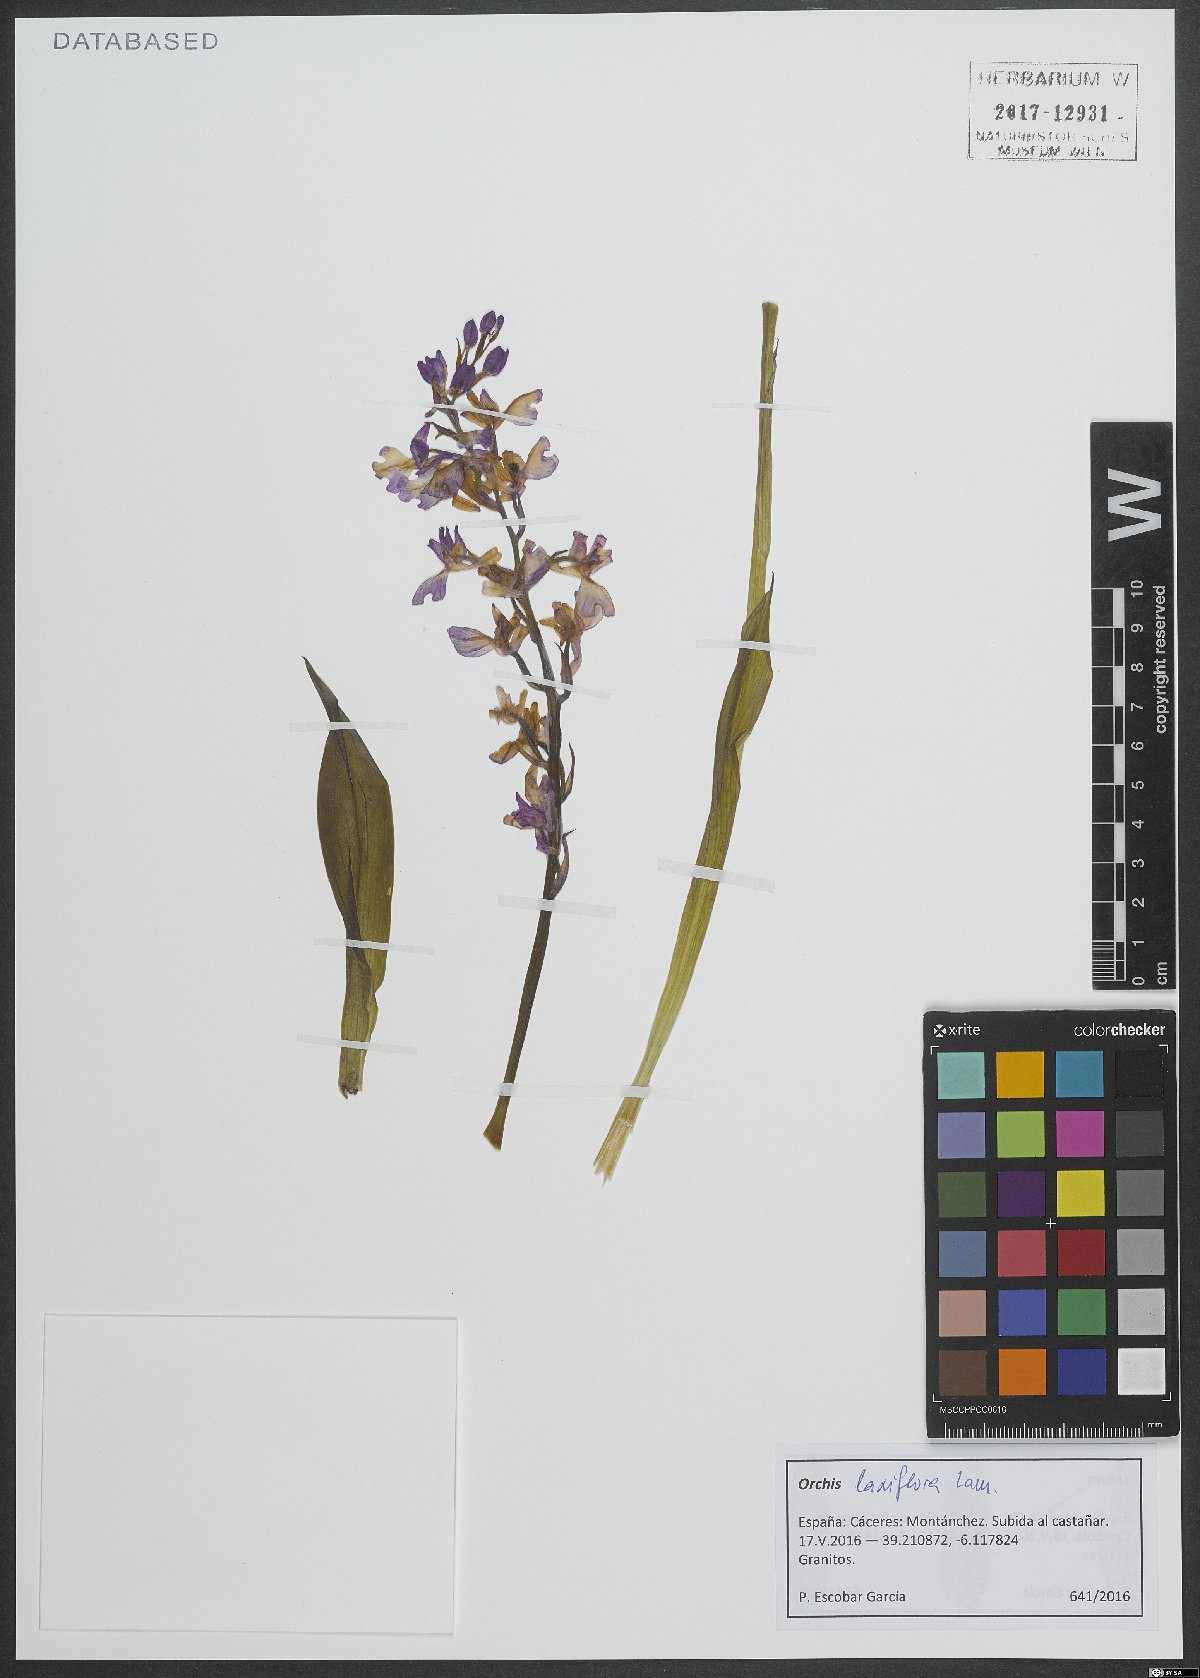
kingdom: Plantae
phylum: Tracheophyta
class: Liliopsida
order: Asparagales
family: Orchidaceae
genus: Anacamptis
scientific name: Anacamptis laxiflora
